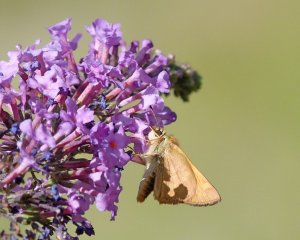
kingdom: Animalia
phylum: Arthropoda
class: Insecta
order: Lepidoptera
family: Hesperiidae
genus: Ochlodes
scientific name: Ochlodes sylvanoides
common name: Woodland Skipper
